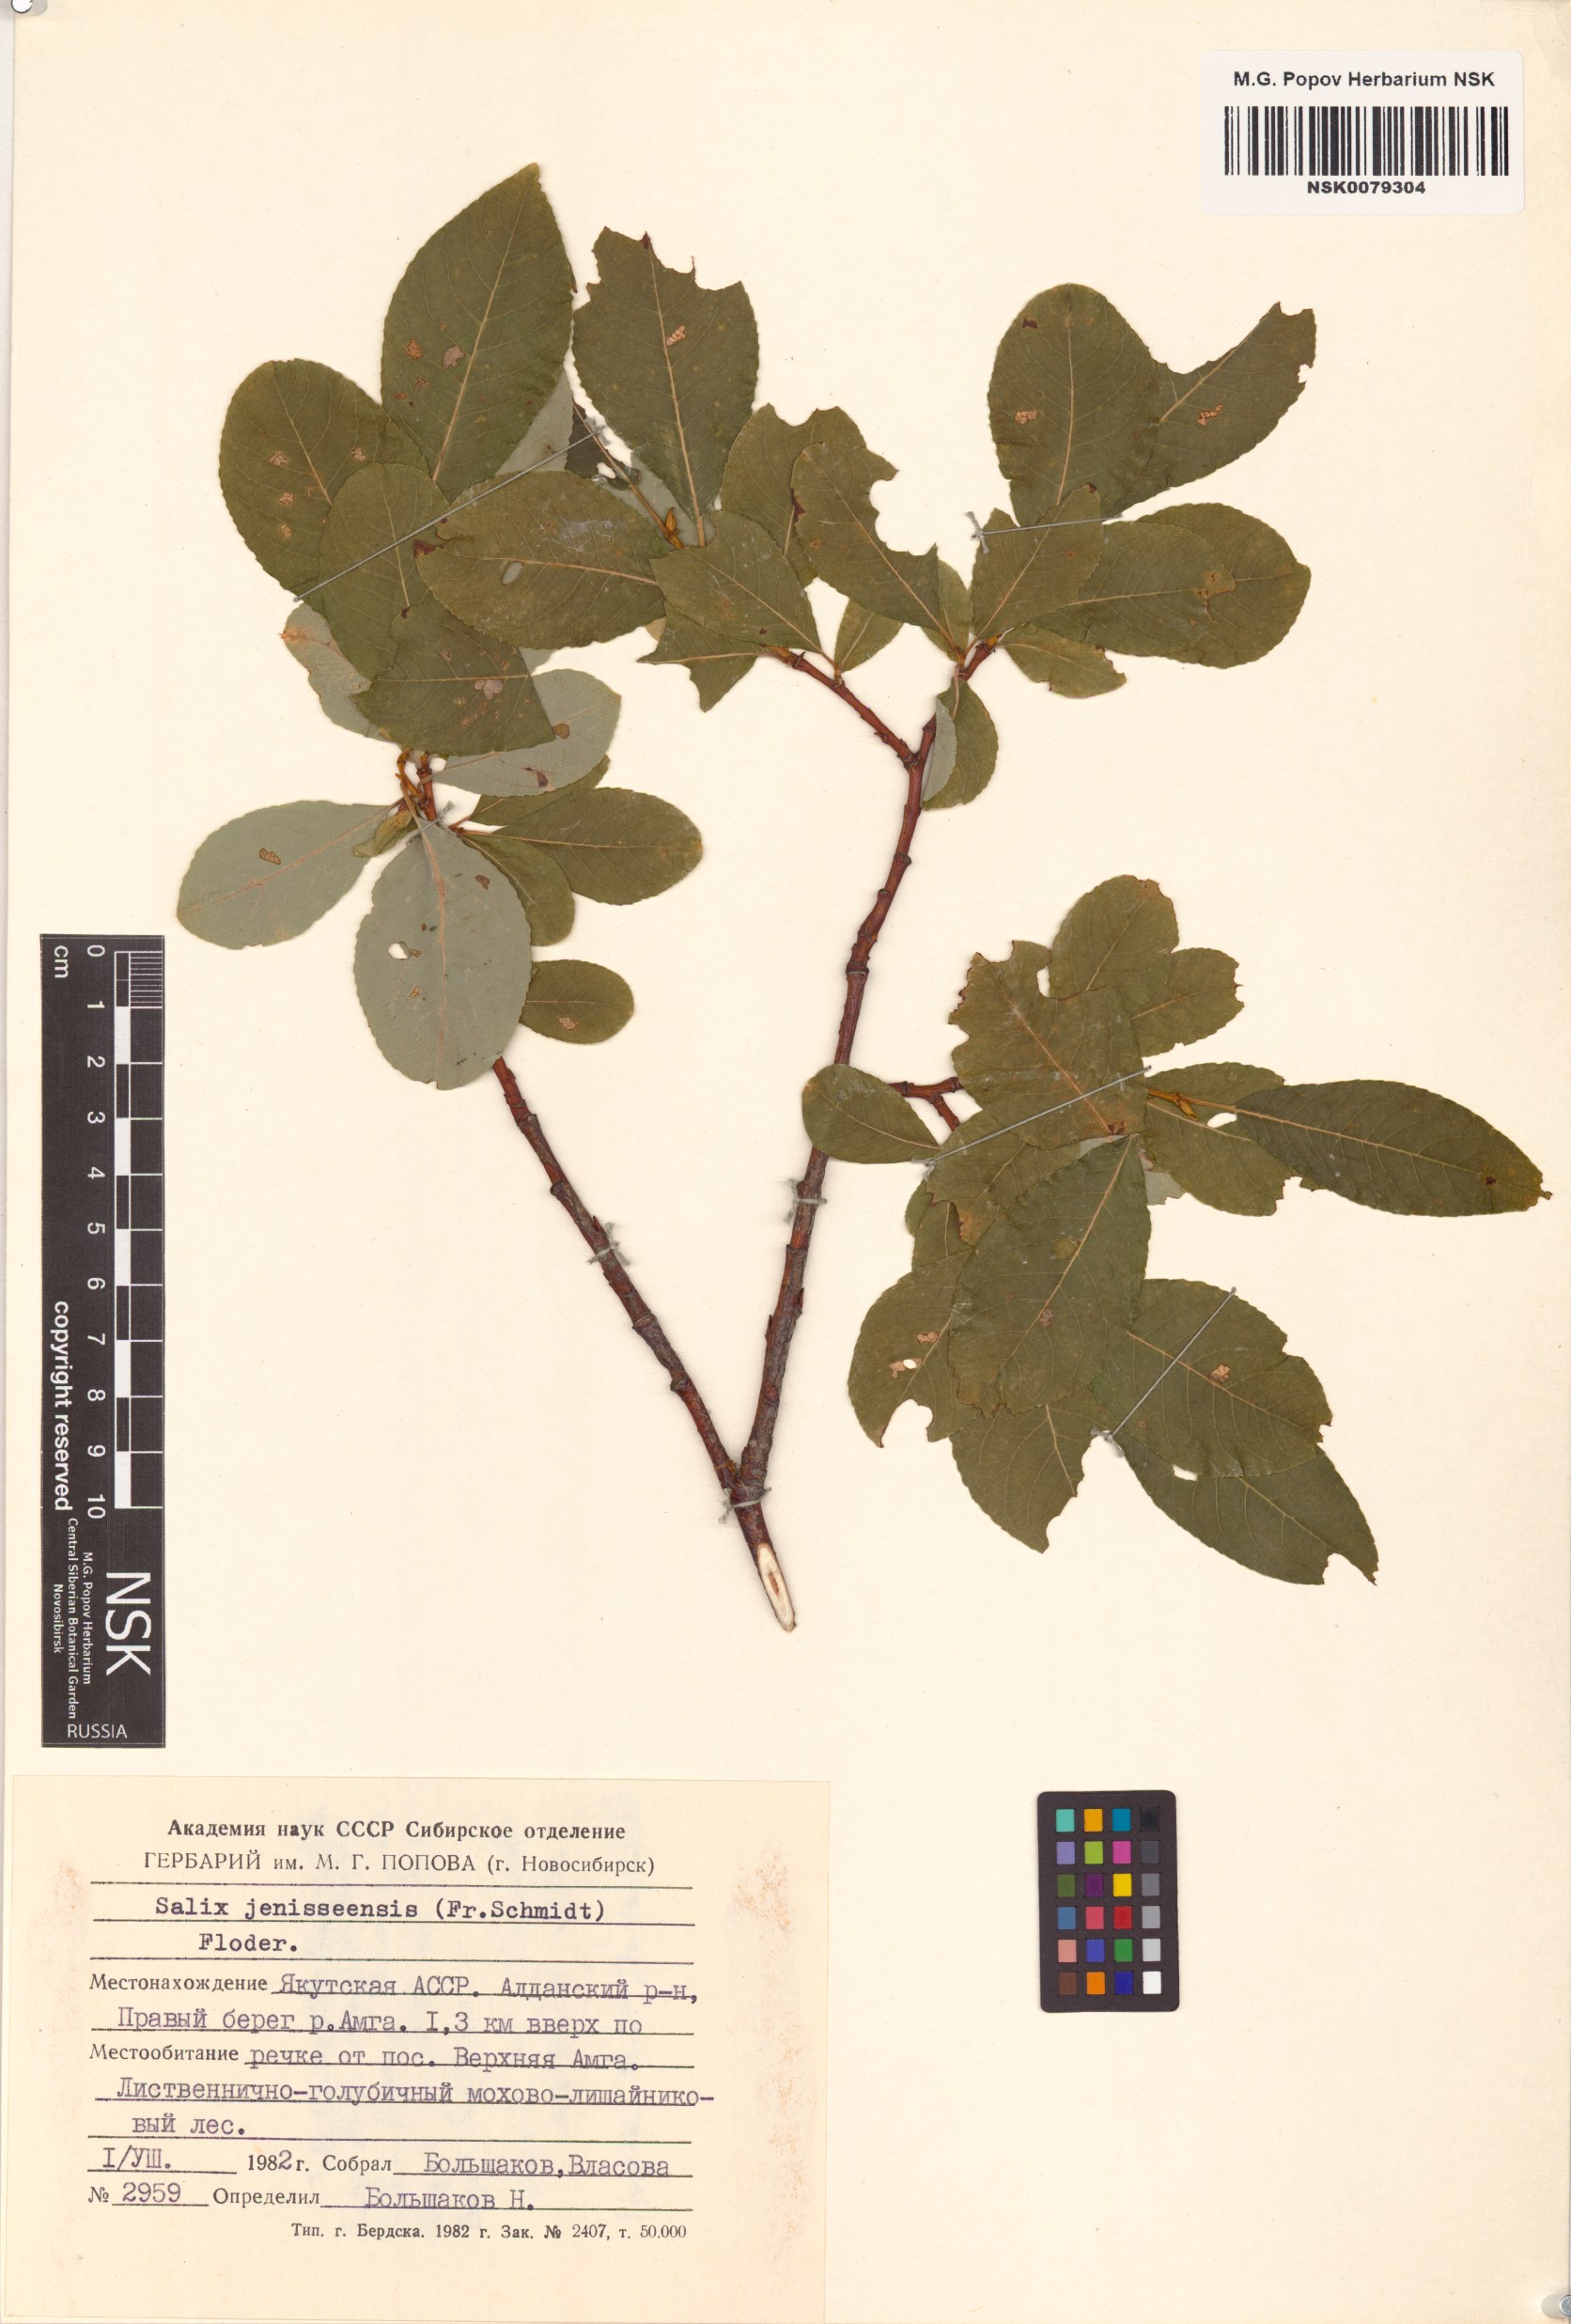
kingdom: Plantae
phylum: Tracheophyta
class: Magnoliopsida
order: Malpighiales
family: Salicaceae
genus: Salix
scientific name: Salix jenisseensis
